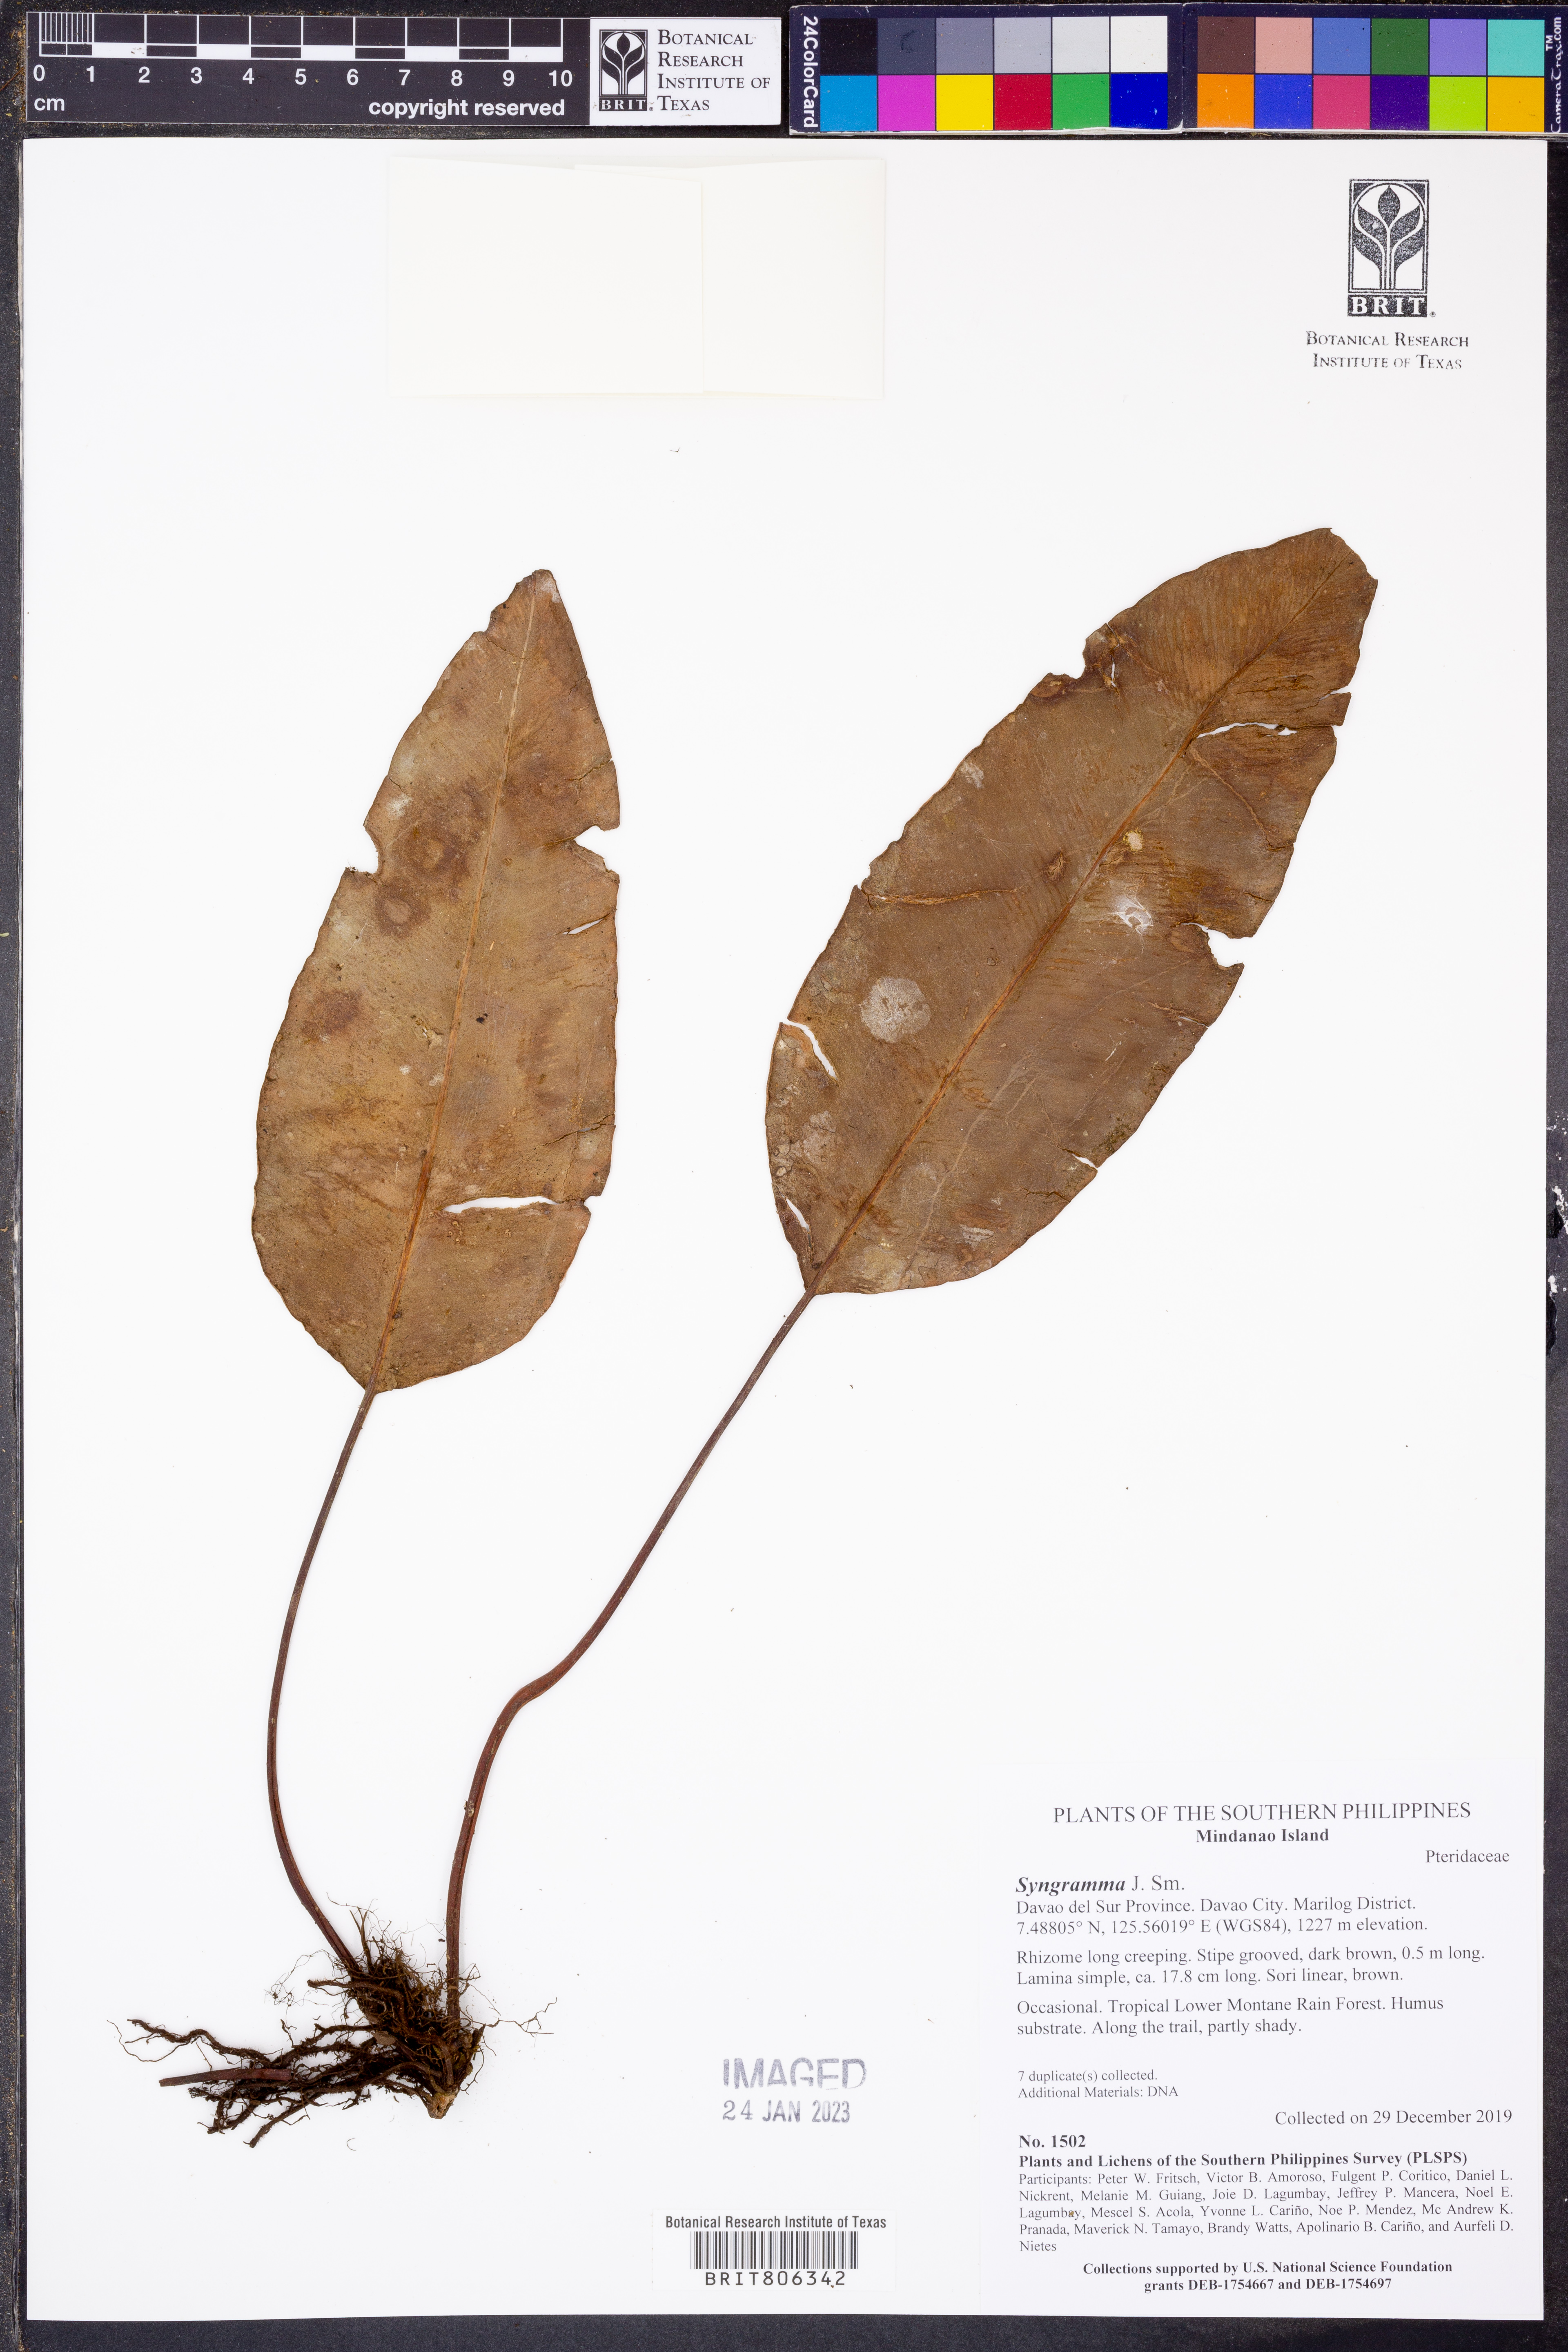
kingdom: Plantae
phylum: Tracheophyta
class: Polypodiopsida
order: Polypodiales
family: Pteridaceae
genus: Syngramma
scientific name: Syngramma
